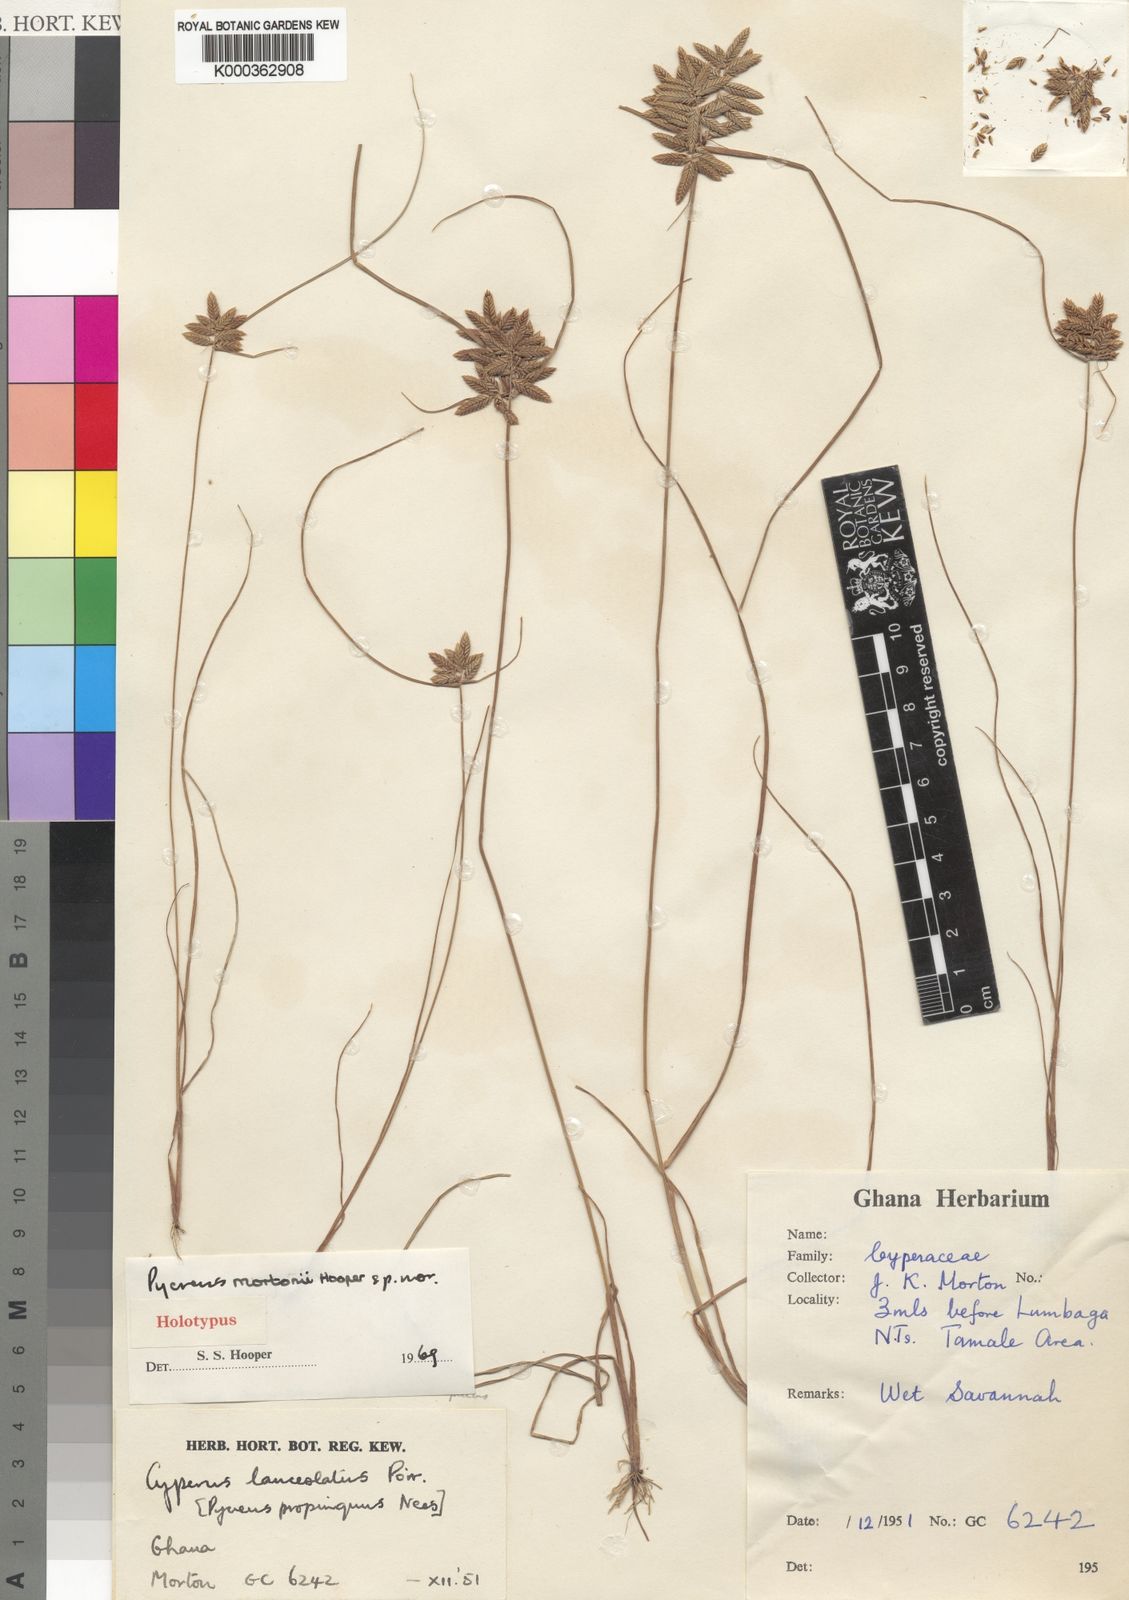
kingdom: Plantae
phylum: Tracheophyta
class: Liliopsida
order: Poales
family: Cyperaceae
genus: Cyperus
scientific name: Cyperus mortonii
